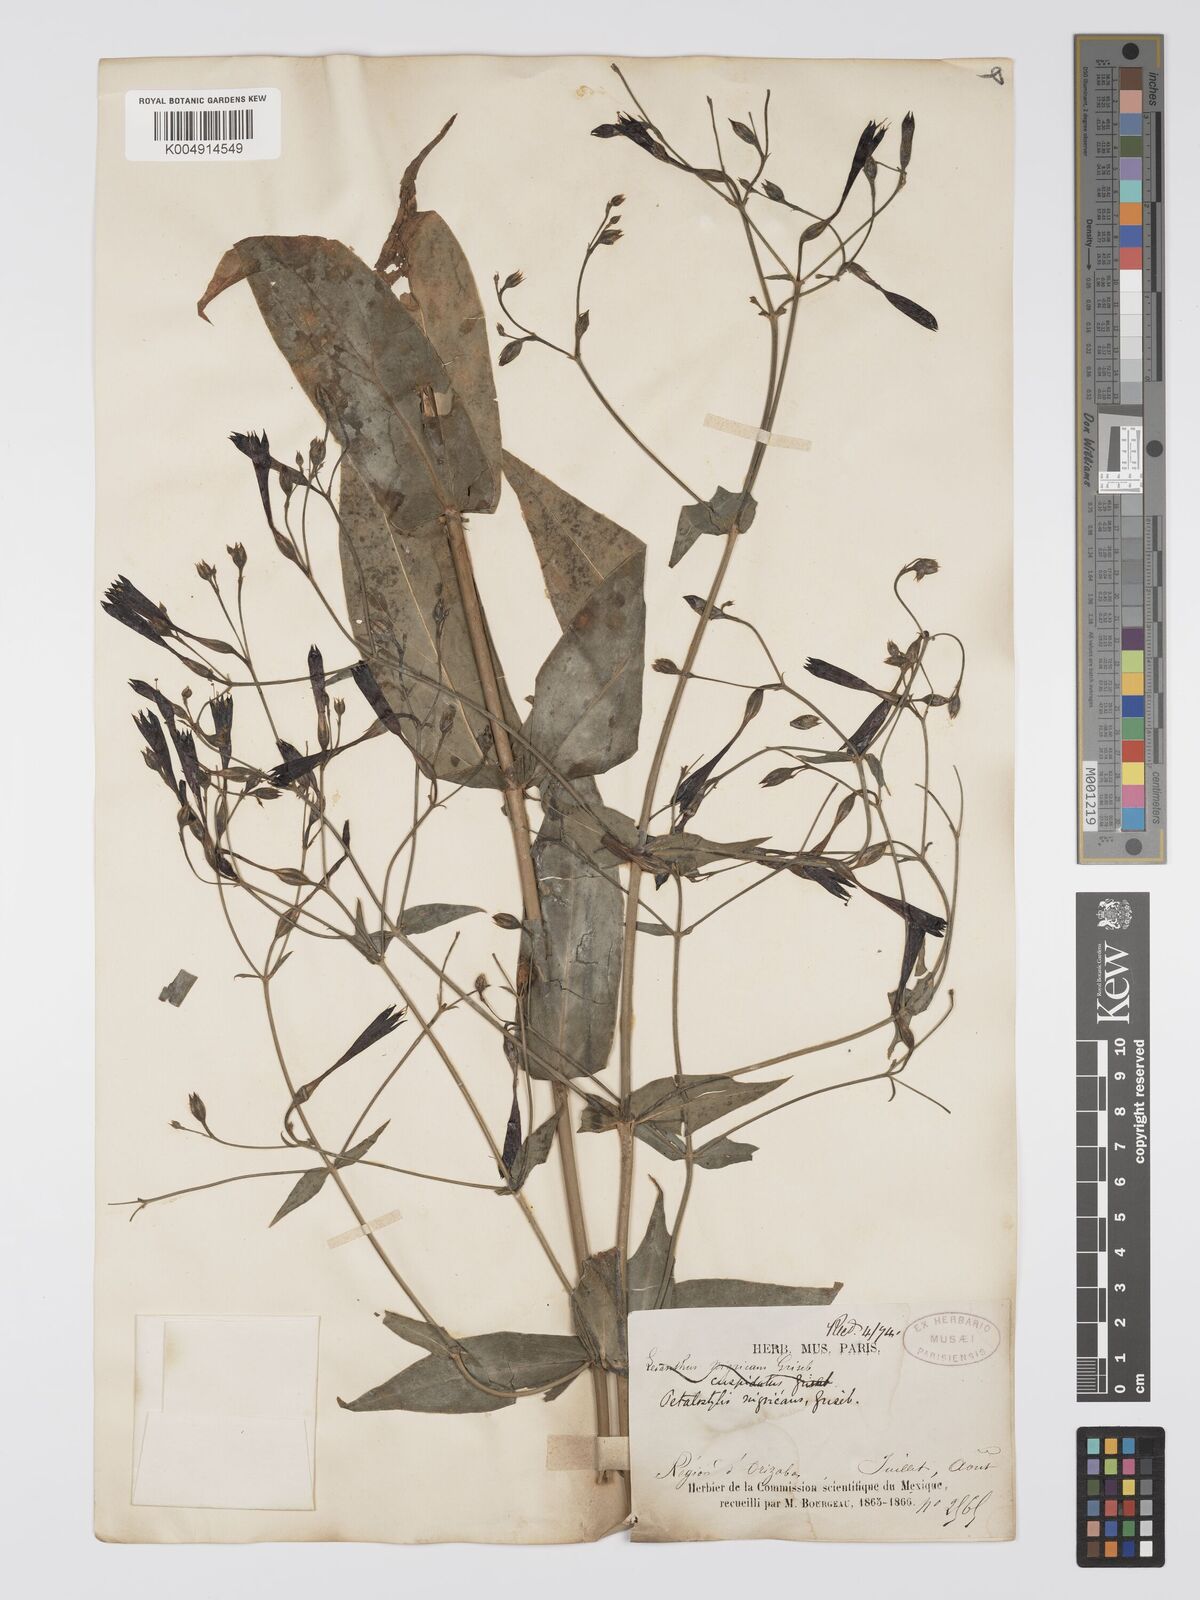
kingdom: Plantae
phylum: Tracheophyta
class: Magnoliopsida
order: Gentianales
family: Gentianaceae
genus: Lisianthus
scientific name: Lisianthus nigrescens
